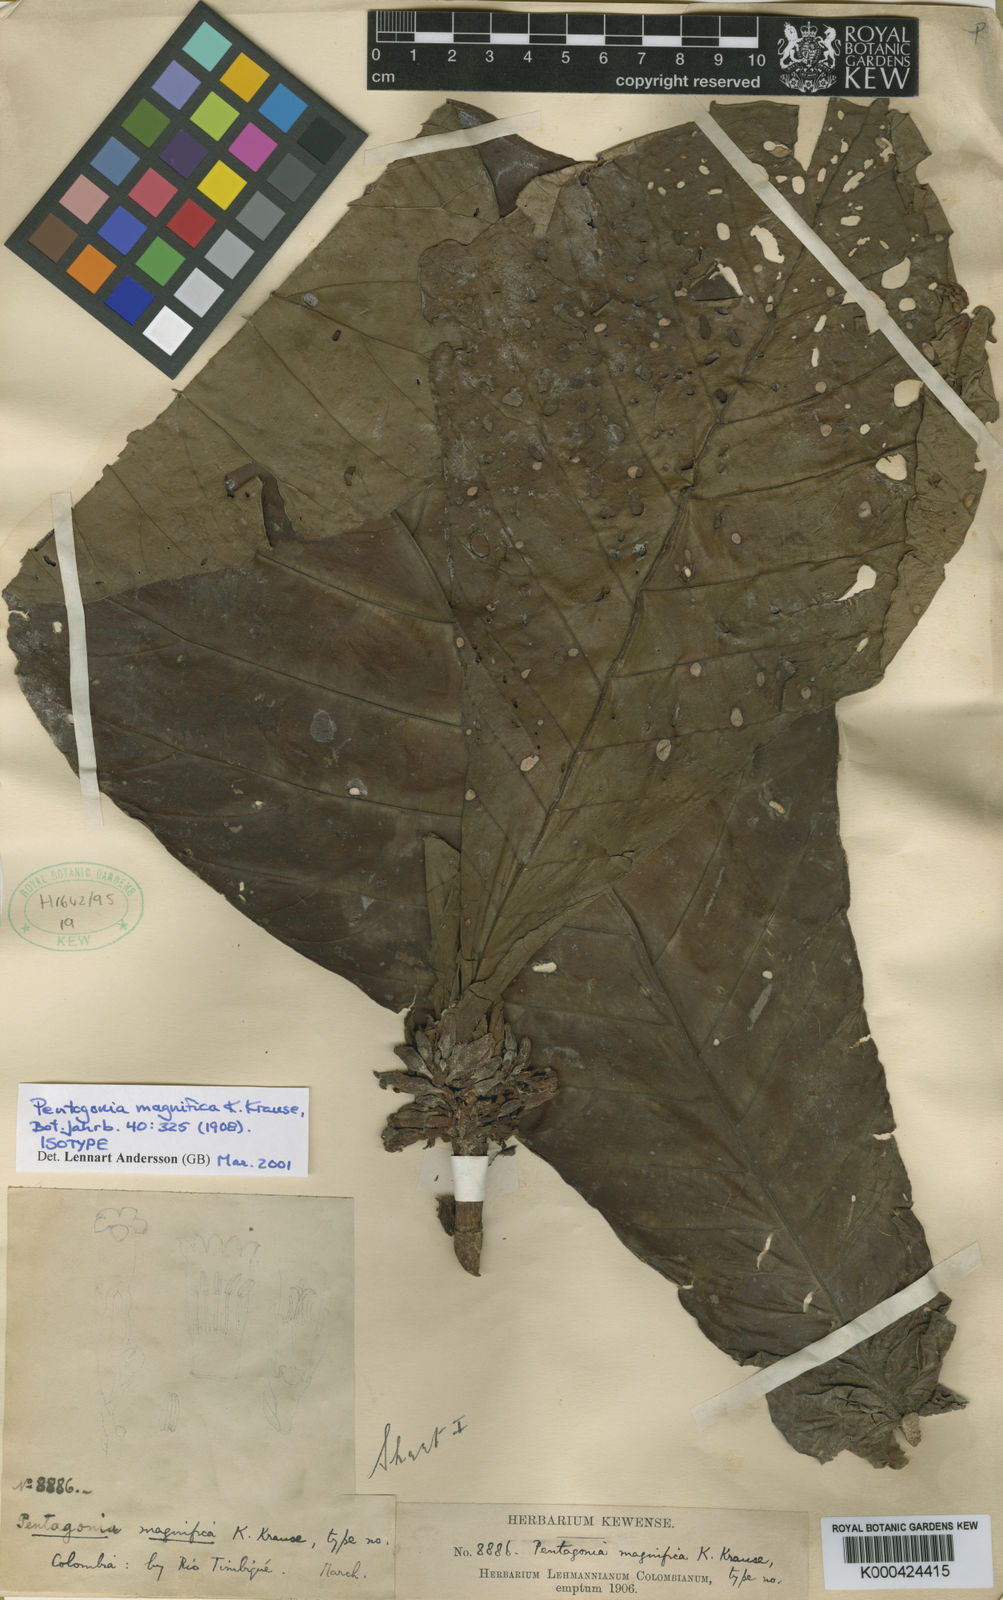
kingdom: Plantae
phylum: Tracheophyta
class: Magnoliopsida
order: Gentianales
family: Rubiaceae
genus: Pentagonia
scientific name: Pentagonia magnifica
